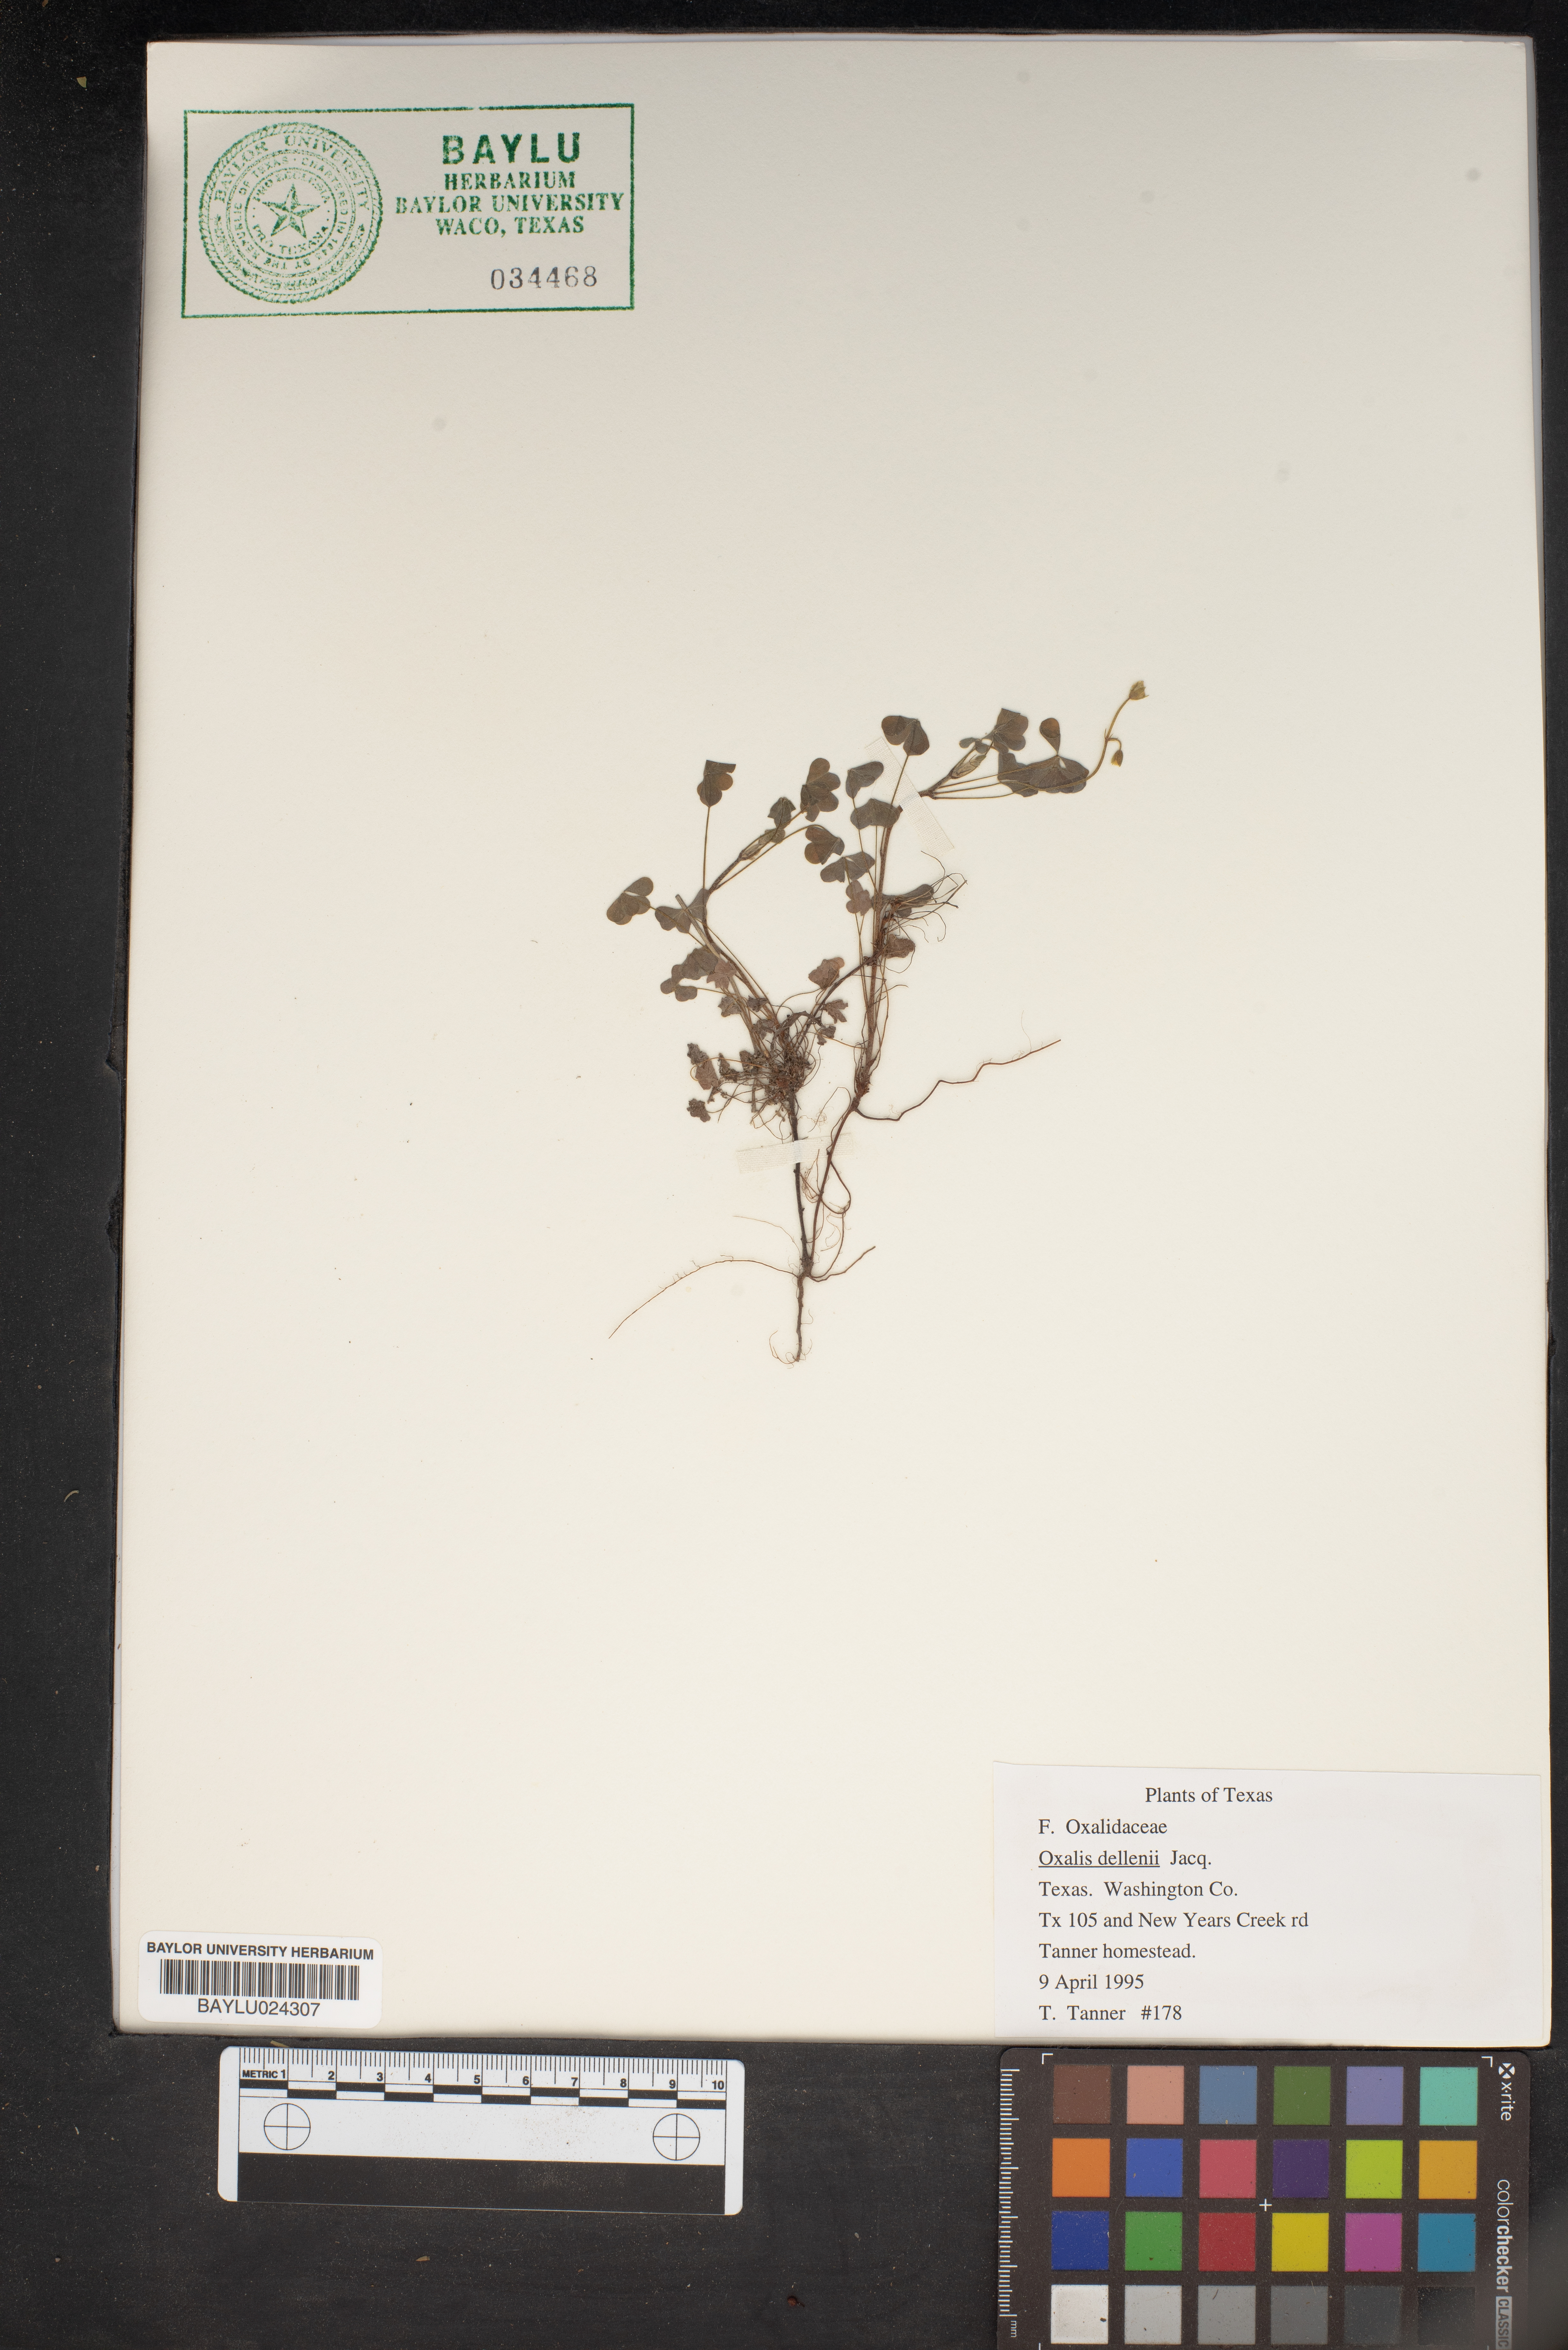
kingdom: Plantae
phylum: Tracheophyta
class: Magnoliopsida
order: Oxalidales
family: Oxalidaceae
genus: Oxalis
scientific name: Oxalis dillenii
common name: Sussex yellow-sorrel
